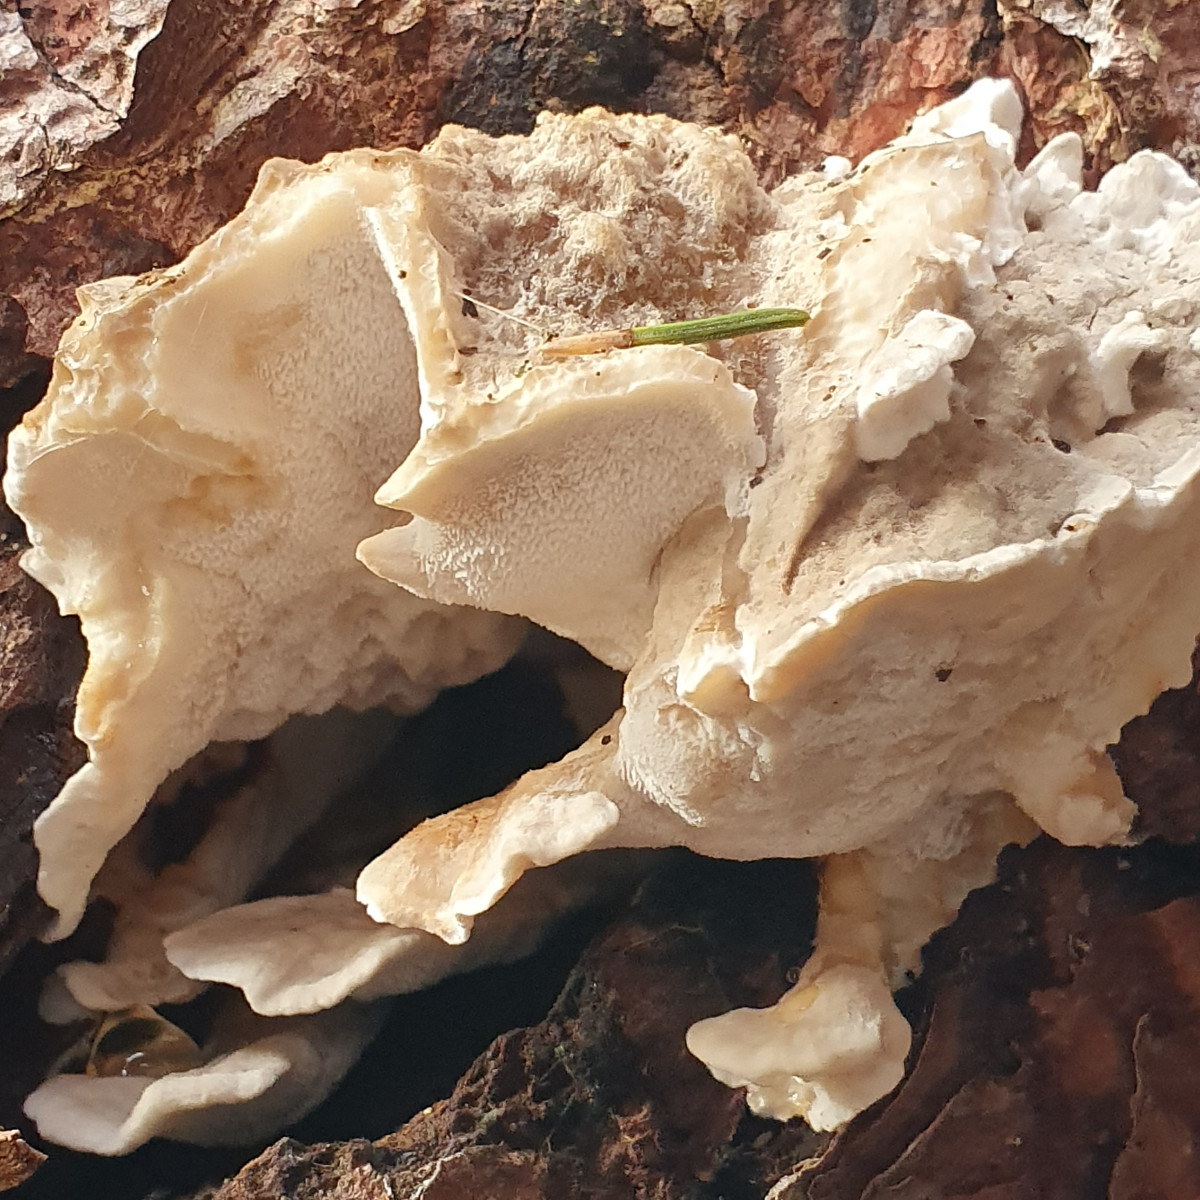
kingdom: Fungi
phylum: Basidiomycota
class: Agaricomycetes
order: Polyporales
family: Fomitopsidaceae
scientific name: Fomitopsidaceae
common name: hovporesvampfamilien
